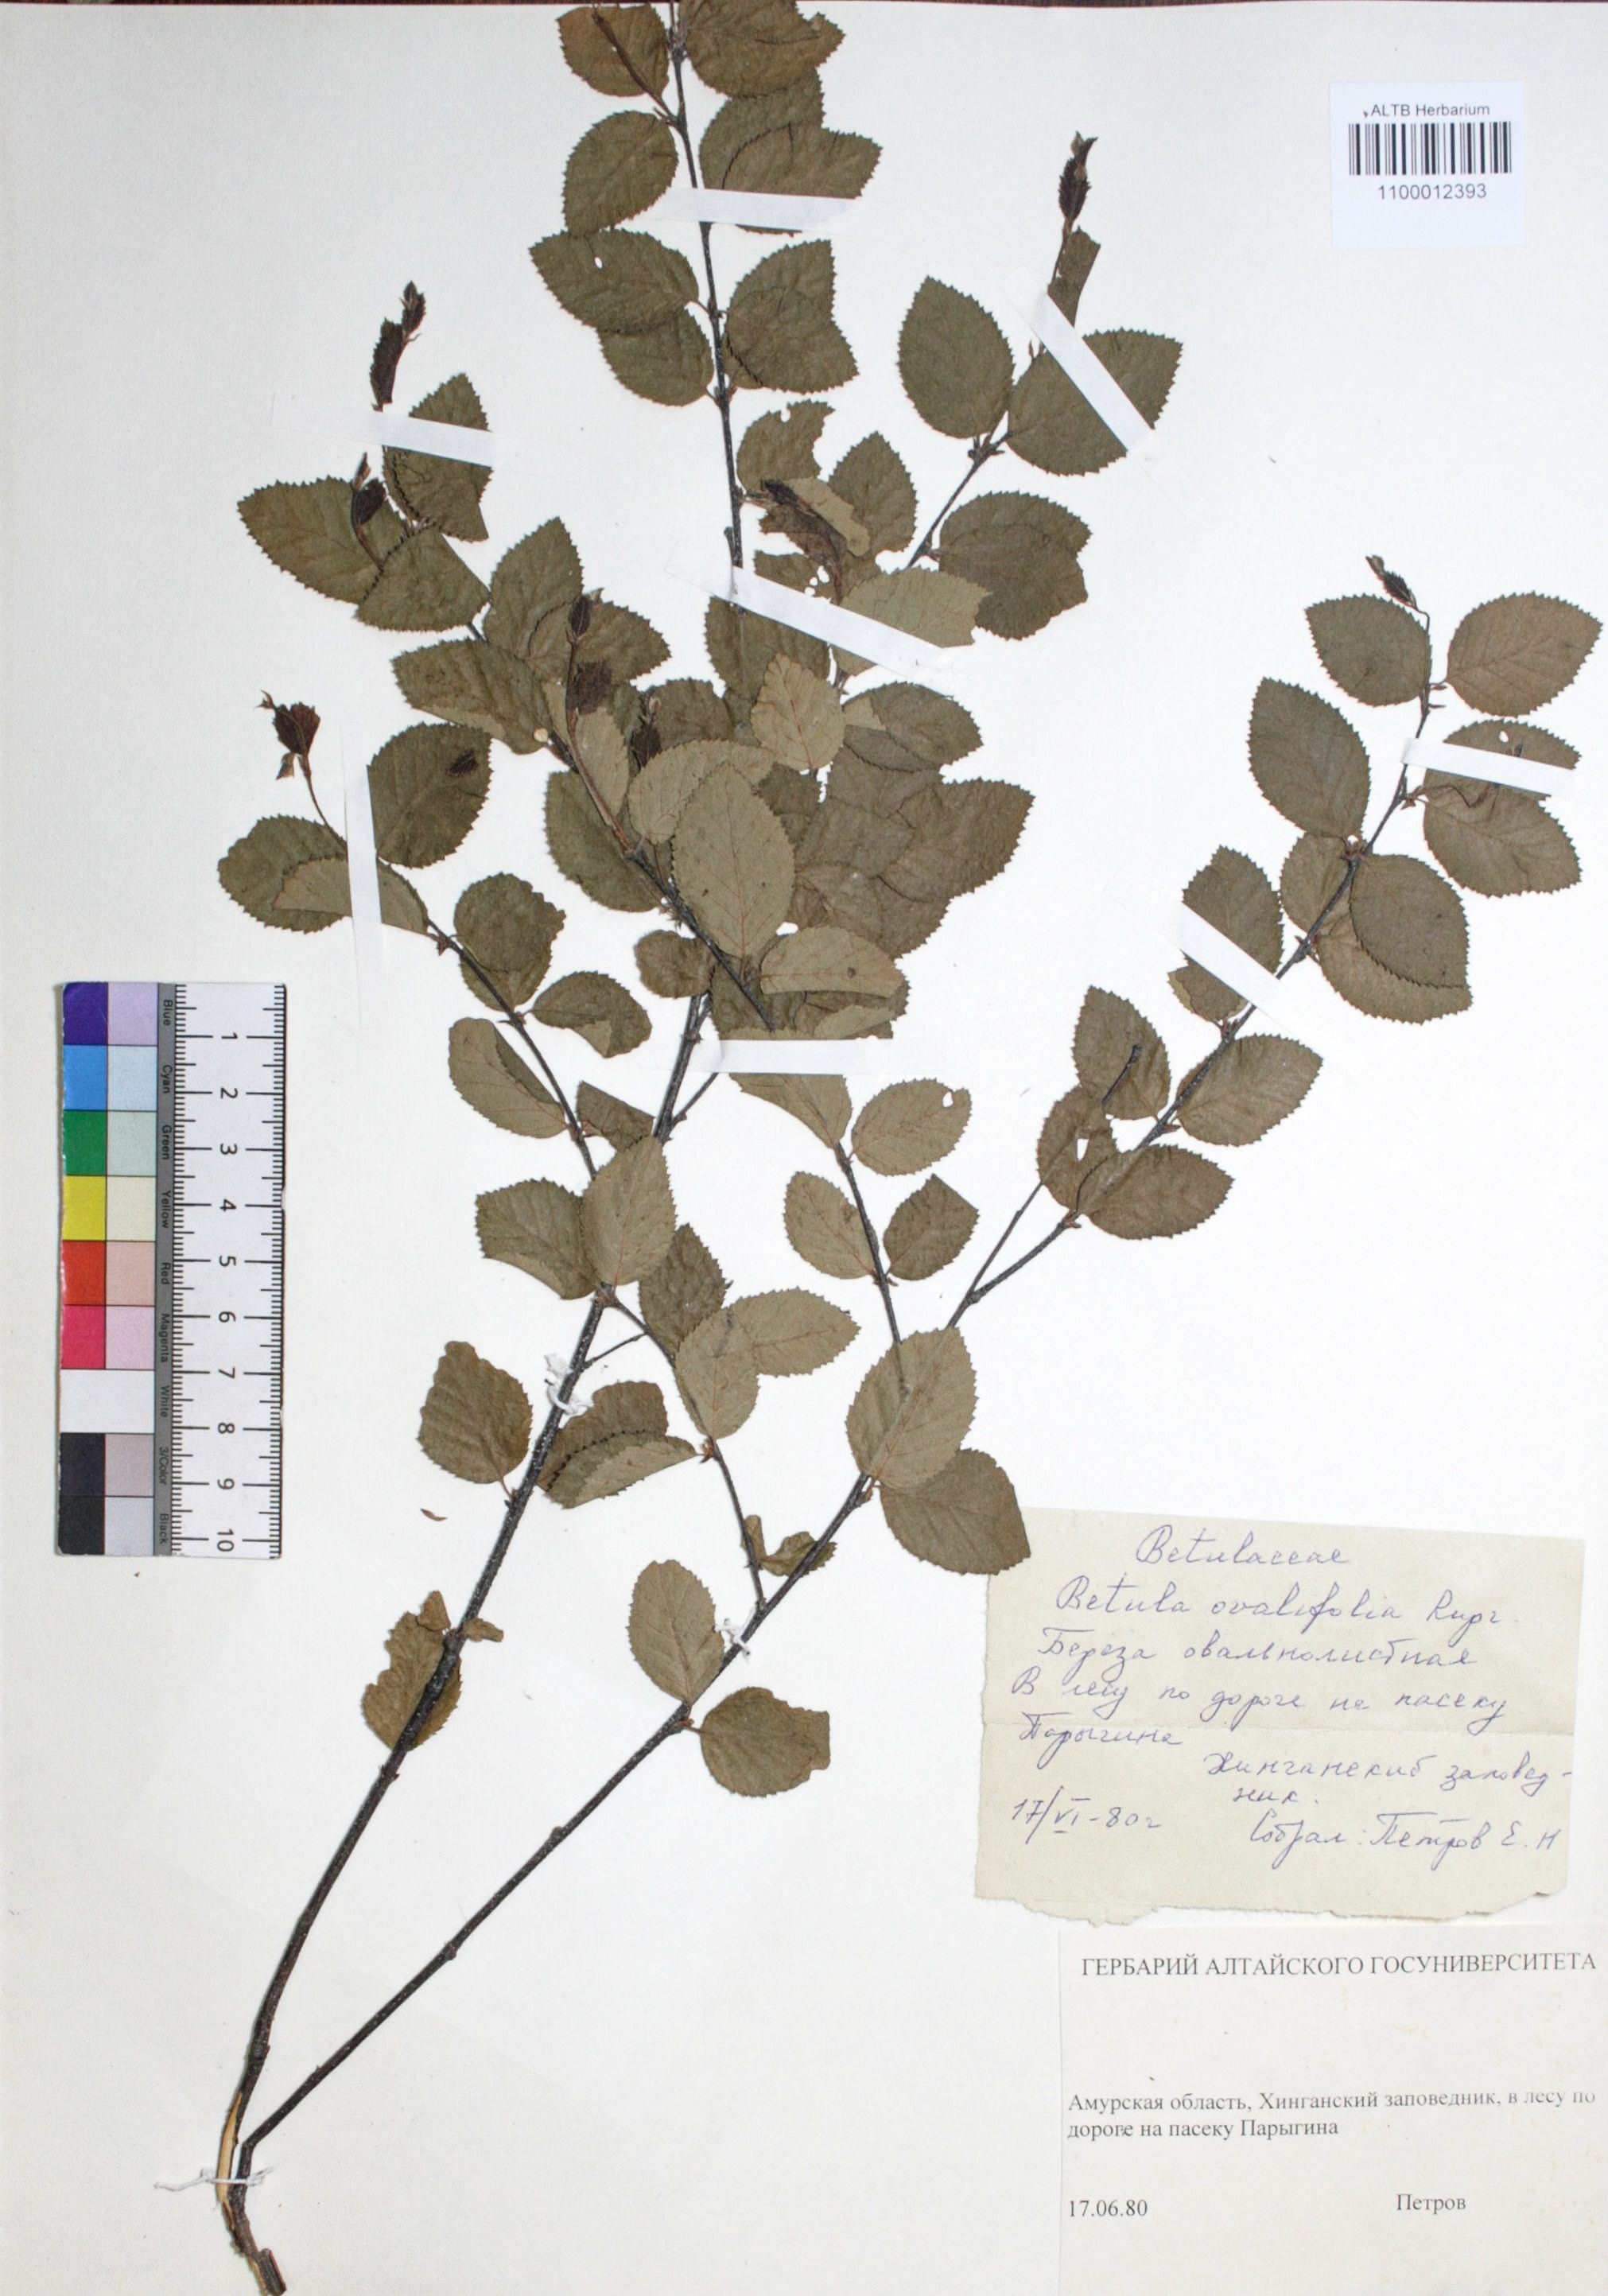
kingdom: Plantae
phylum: Tracheophyta
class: Magnoliopsida
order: Fagales
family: Betulaceae
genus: Betula
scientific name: Betula fruticosa
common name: Japanese bog birch
